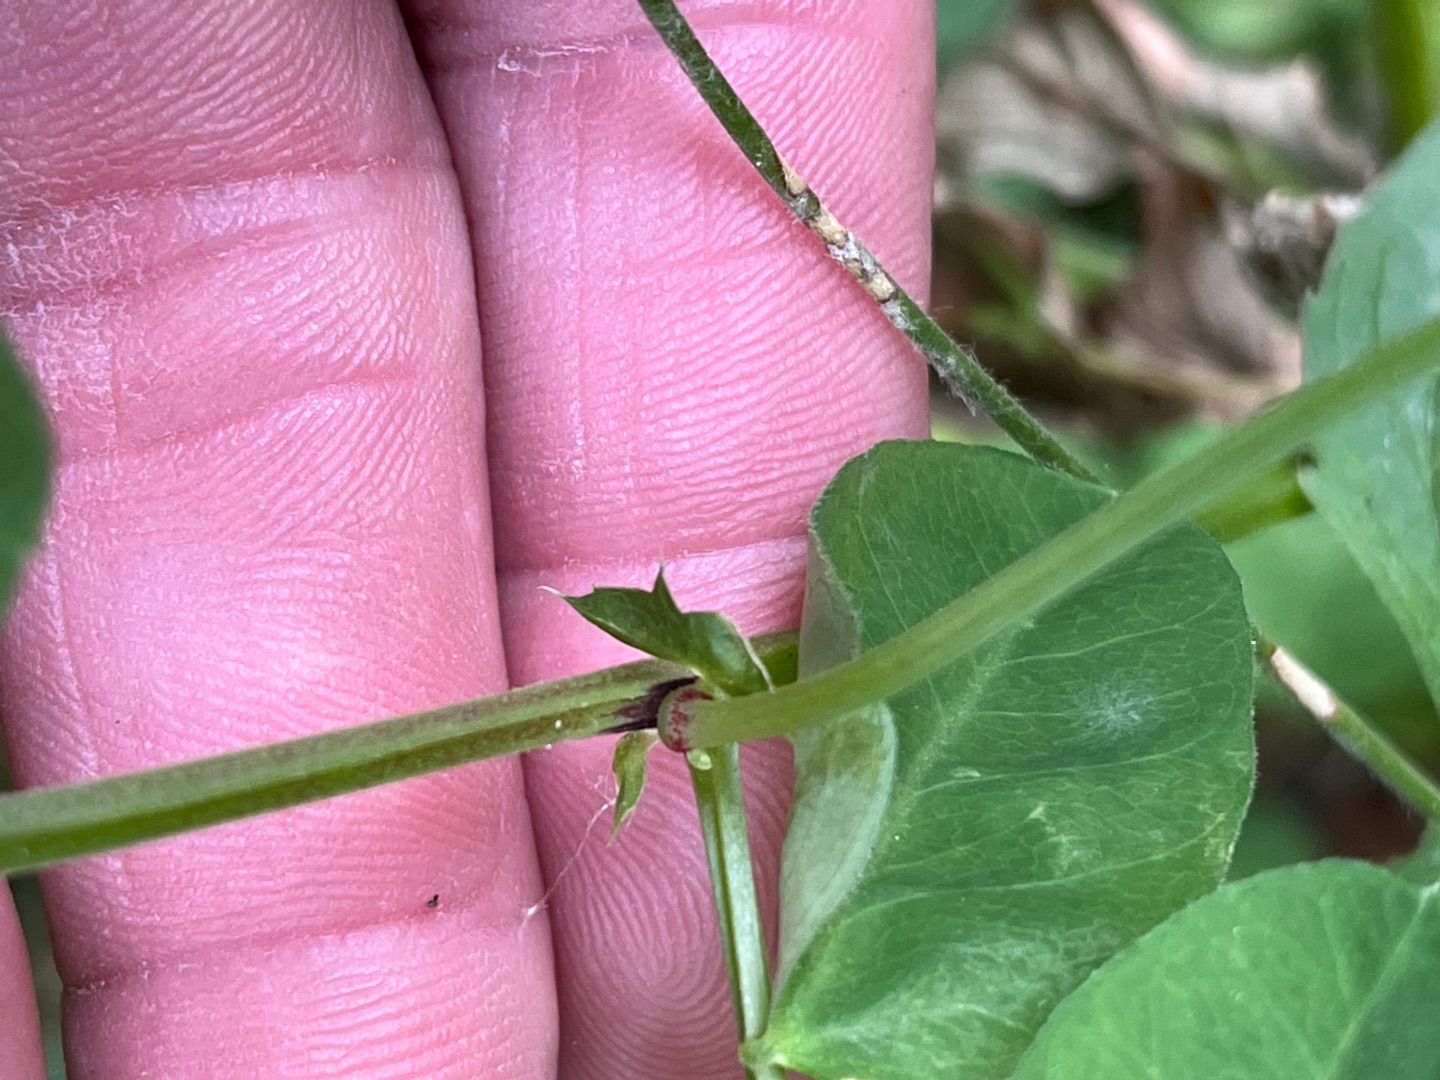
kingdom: Plantae
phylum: Tracheophyta
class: Magnoliopsida
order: Fabales
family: Fabaceae
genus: Vicia
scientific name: Vicia dumetorum
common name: Krat-vikke
